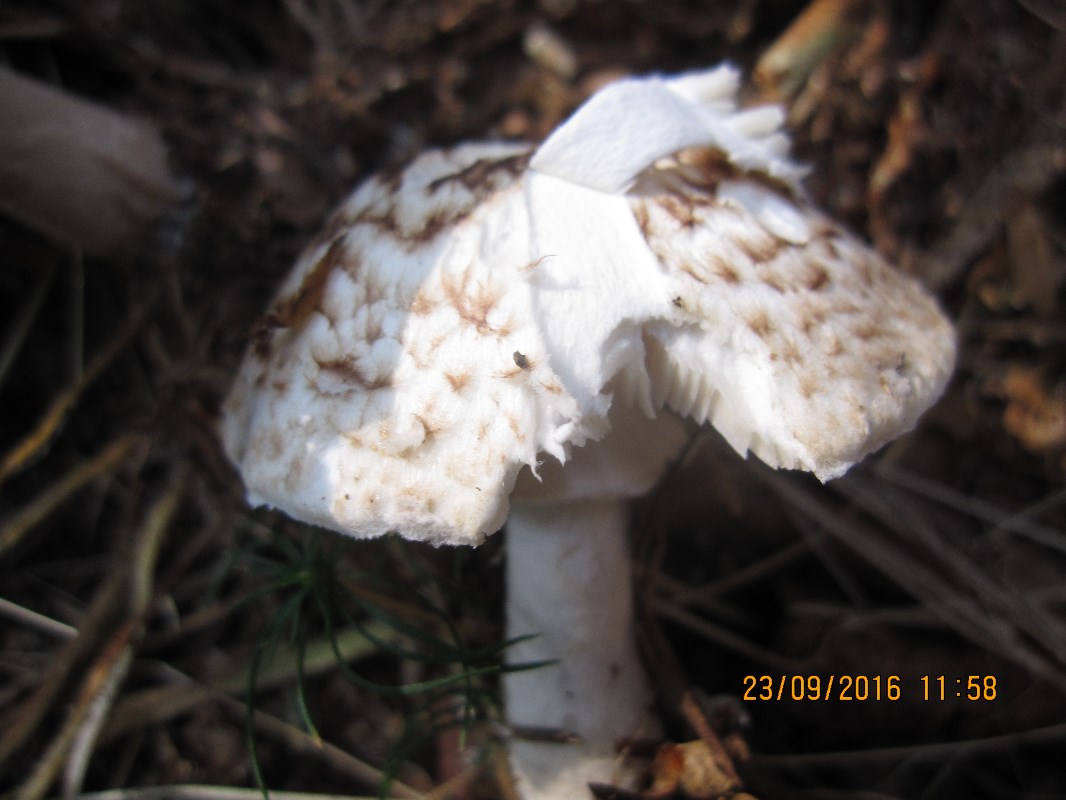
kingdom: Fungi
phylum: Basidiomycota
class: Agaricomycetes
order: Agaricales
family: Agaricaceae
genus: Agaricus
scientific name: Agaricus impudicus
